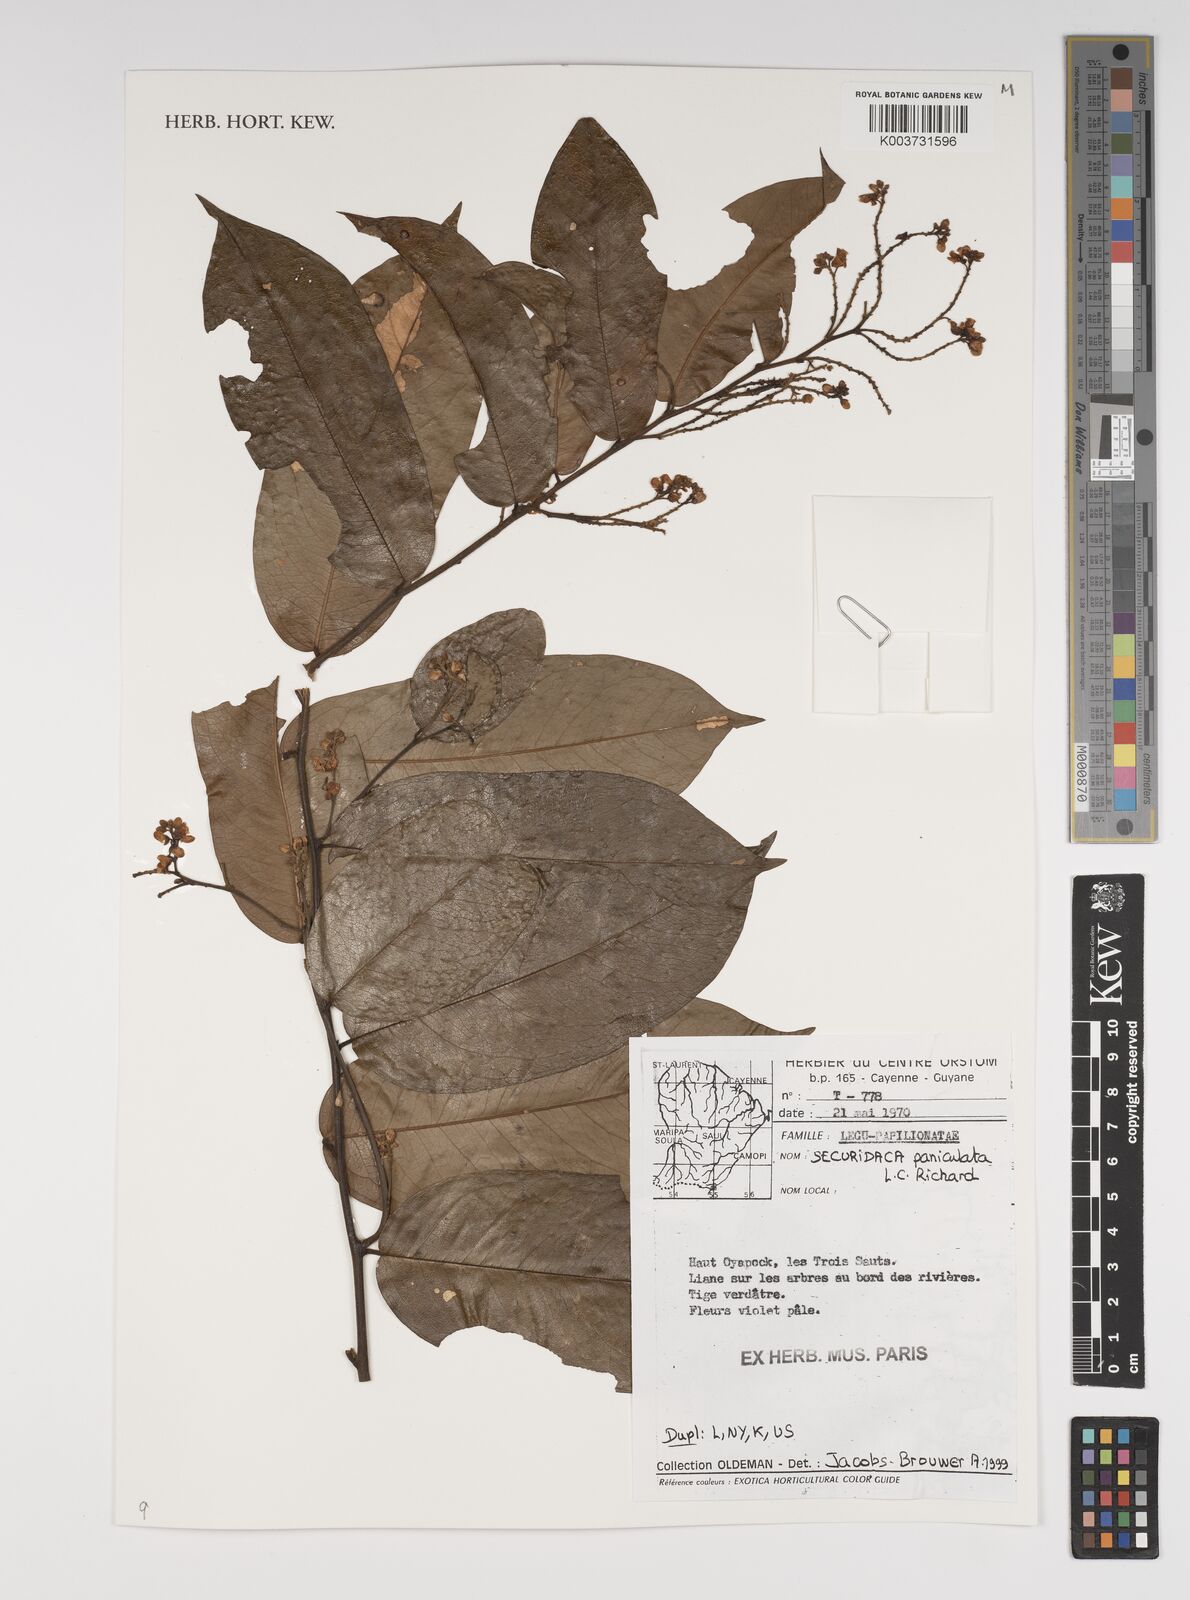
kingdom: Plantae
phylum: Tracheophyta
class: Magnoliopsida
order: Fabales
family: Polygalaceae
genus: Securidaca
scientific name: Securidaca paniculata
